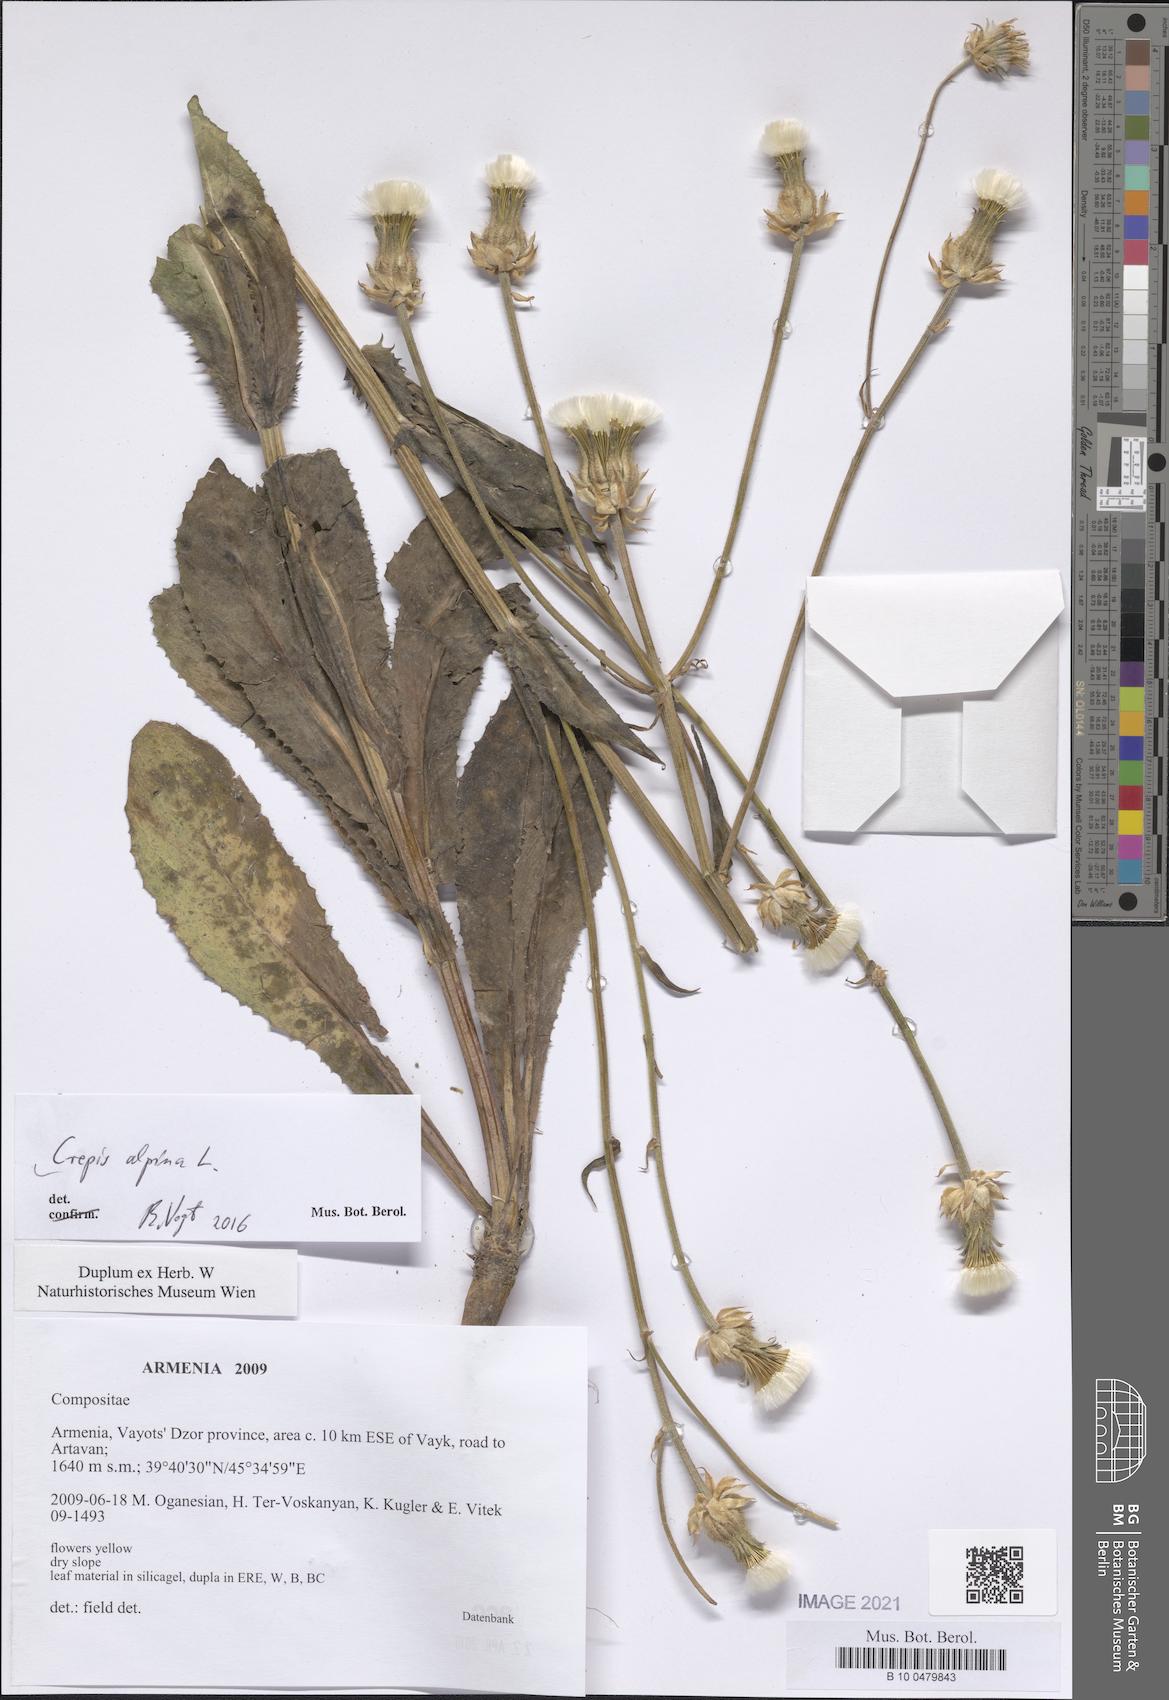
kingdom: Plantae
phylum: Tracheophyta
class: Magnoliopsida
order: Asterales
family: Asteraceae
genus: Crepis
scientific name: Crepis alpina
